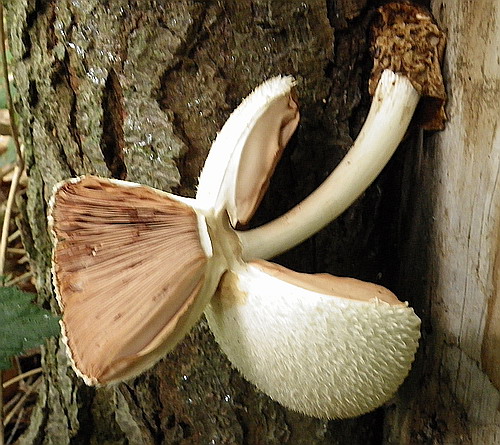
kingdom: Fungi
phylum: Basidiomycota
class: Agaricomycetes
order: Agaricales
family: Pluteaceae
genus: Volvariella
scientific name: Volvariella bombycina
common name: silkehåret posesvamp
